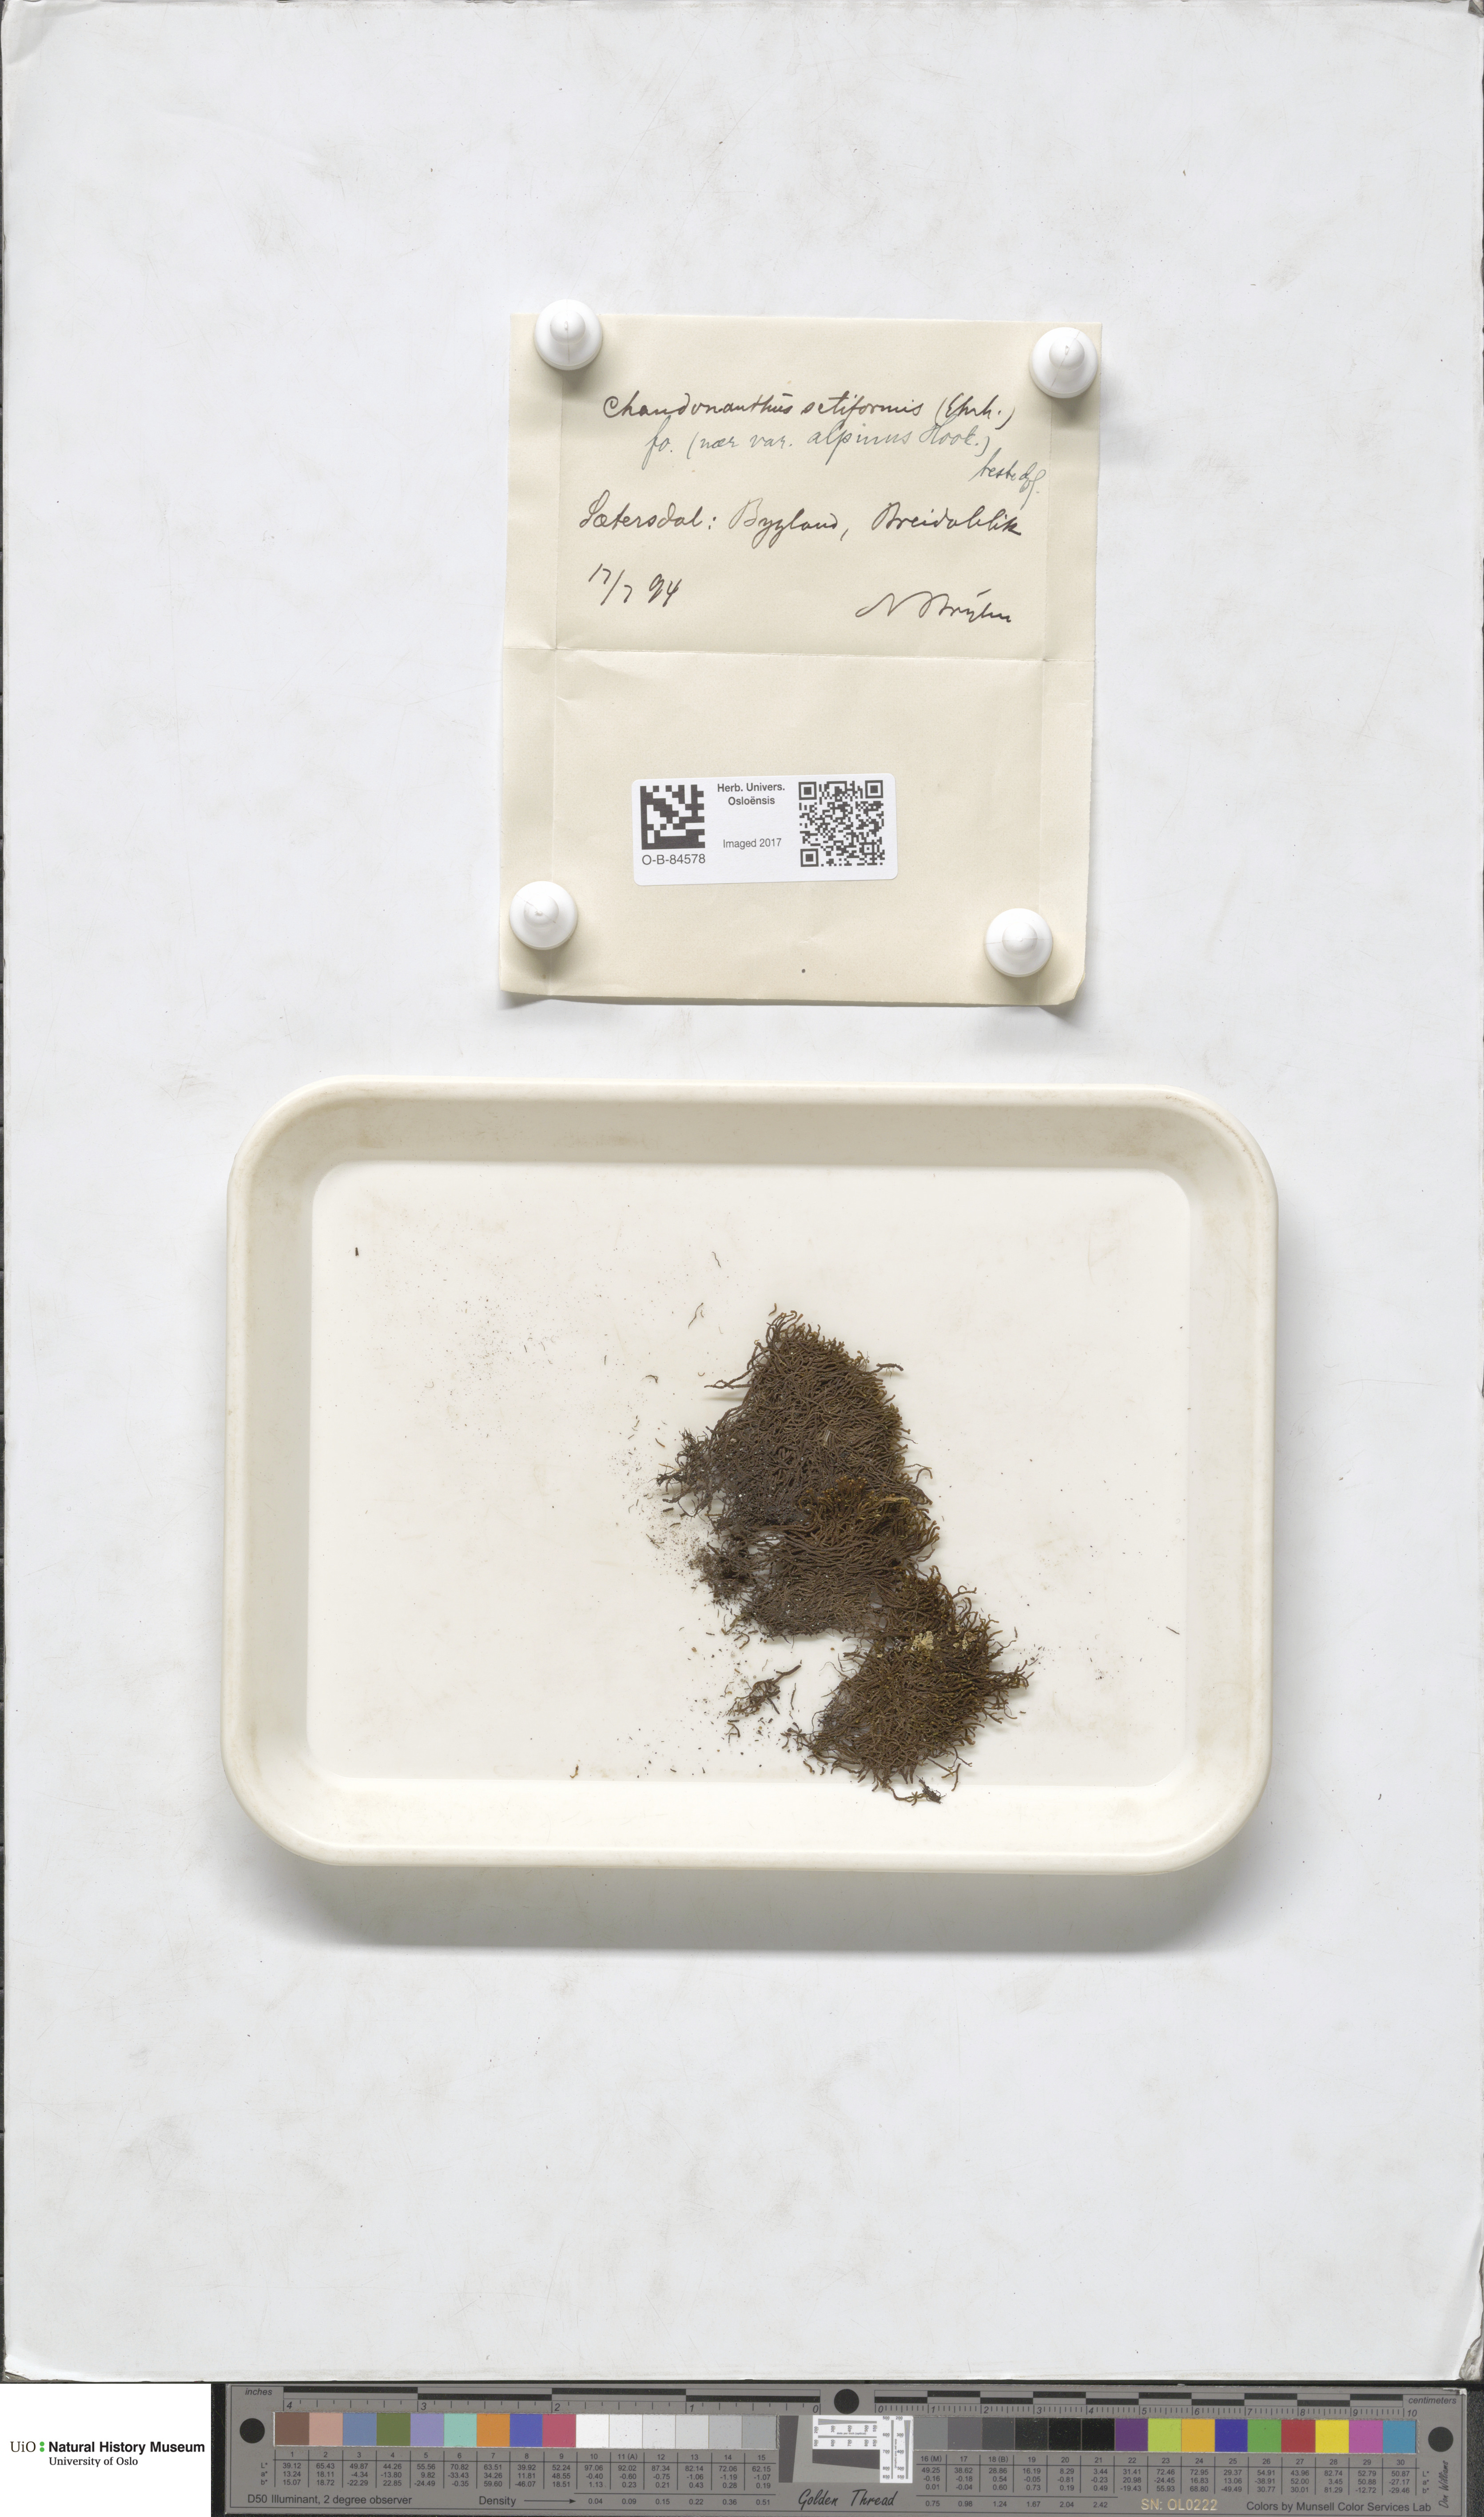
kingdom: Plantae
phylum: Marchantiophyta
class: Jungermanniopsida
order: Jungermanniales
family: Anastrophyllaceae
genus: Tetralophozia
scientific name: Tetralophozia setiformis
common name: Monster pawwort
